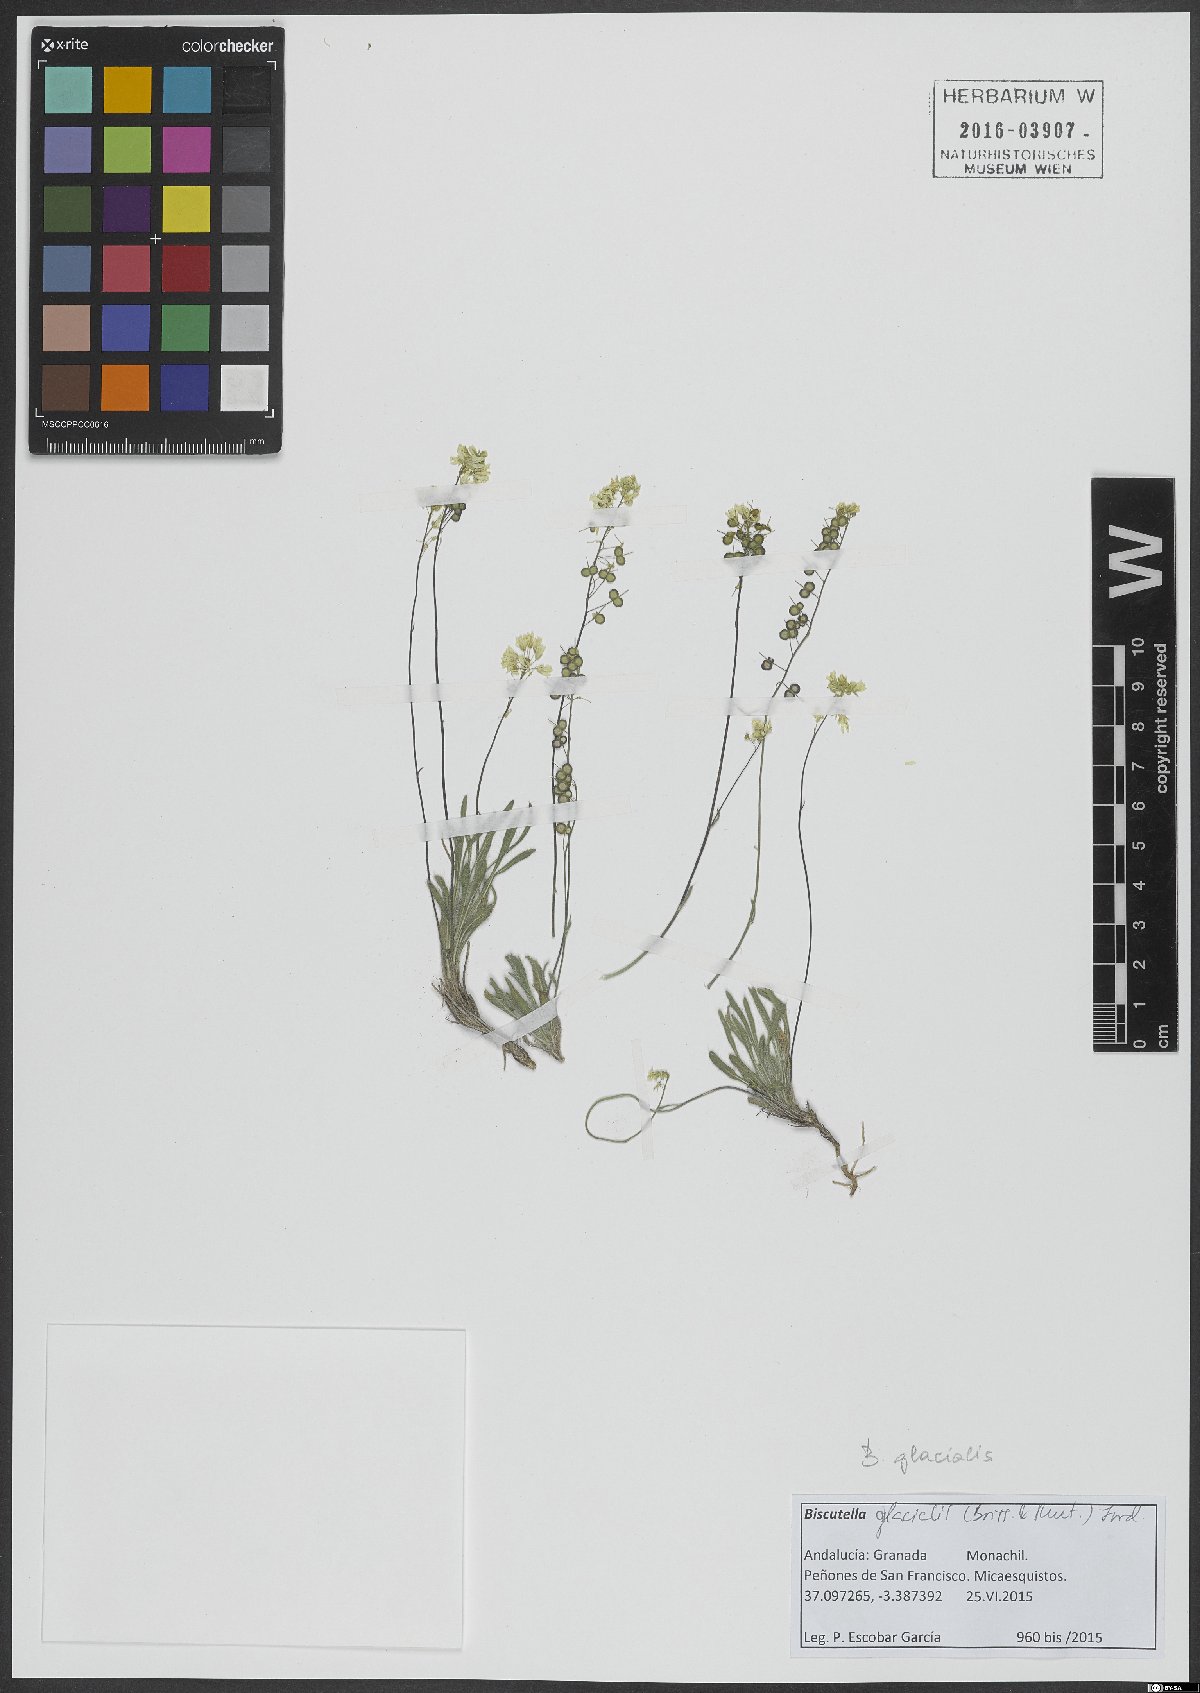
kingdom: Plantae
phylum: Tracheophyta
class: Magnoliopsida
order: Brassicales
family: Brassicaceae
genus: Biscutella
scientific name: Biscutella glacialis
